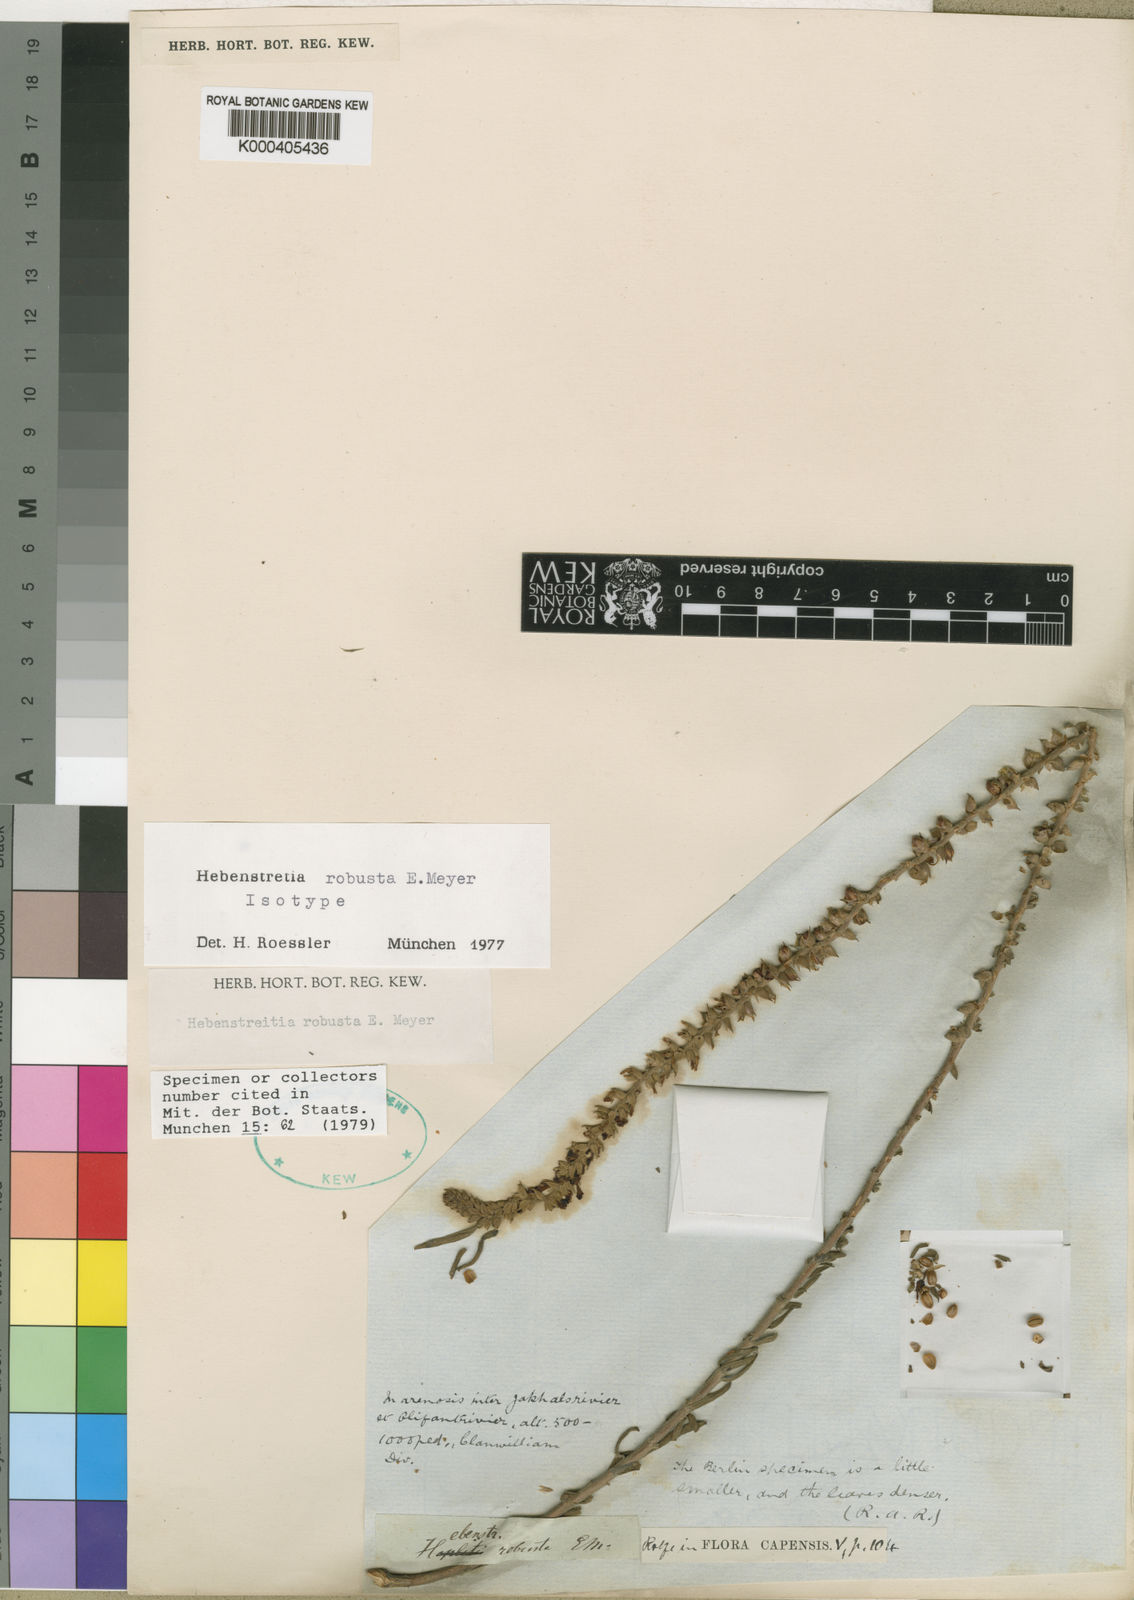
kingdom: Plantae
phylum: Tracheophyta
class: Magnoliopsida
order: Lamiales
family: Scrophulariaceae
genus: Hebenstretia
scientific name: Hebenstretia robusta
